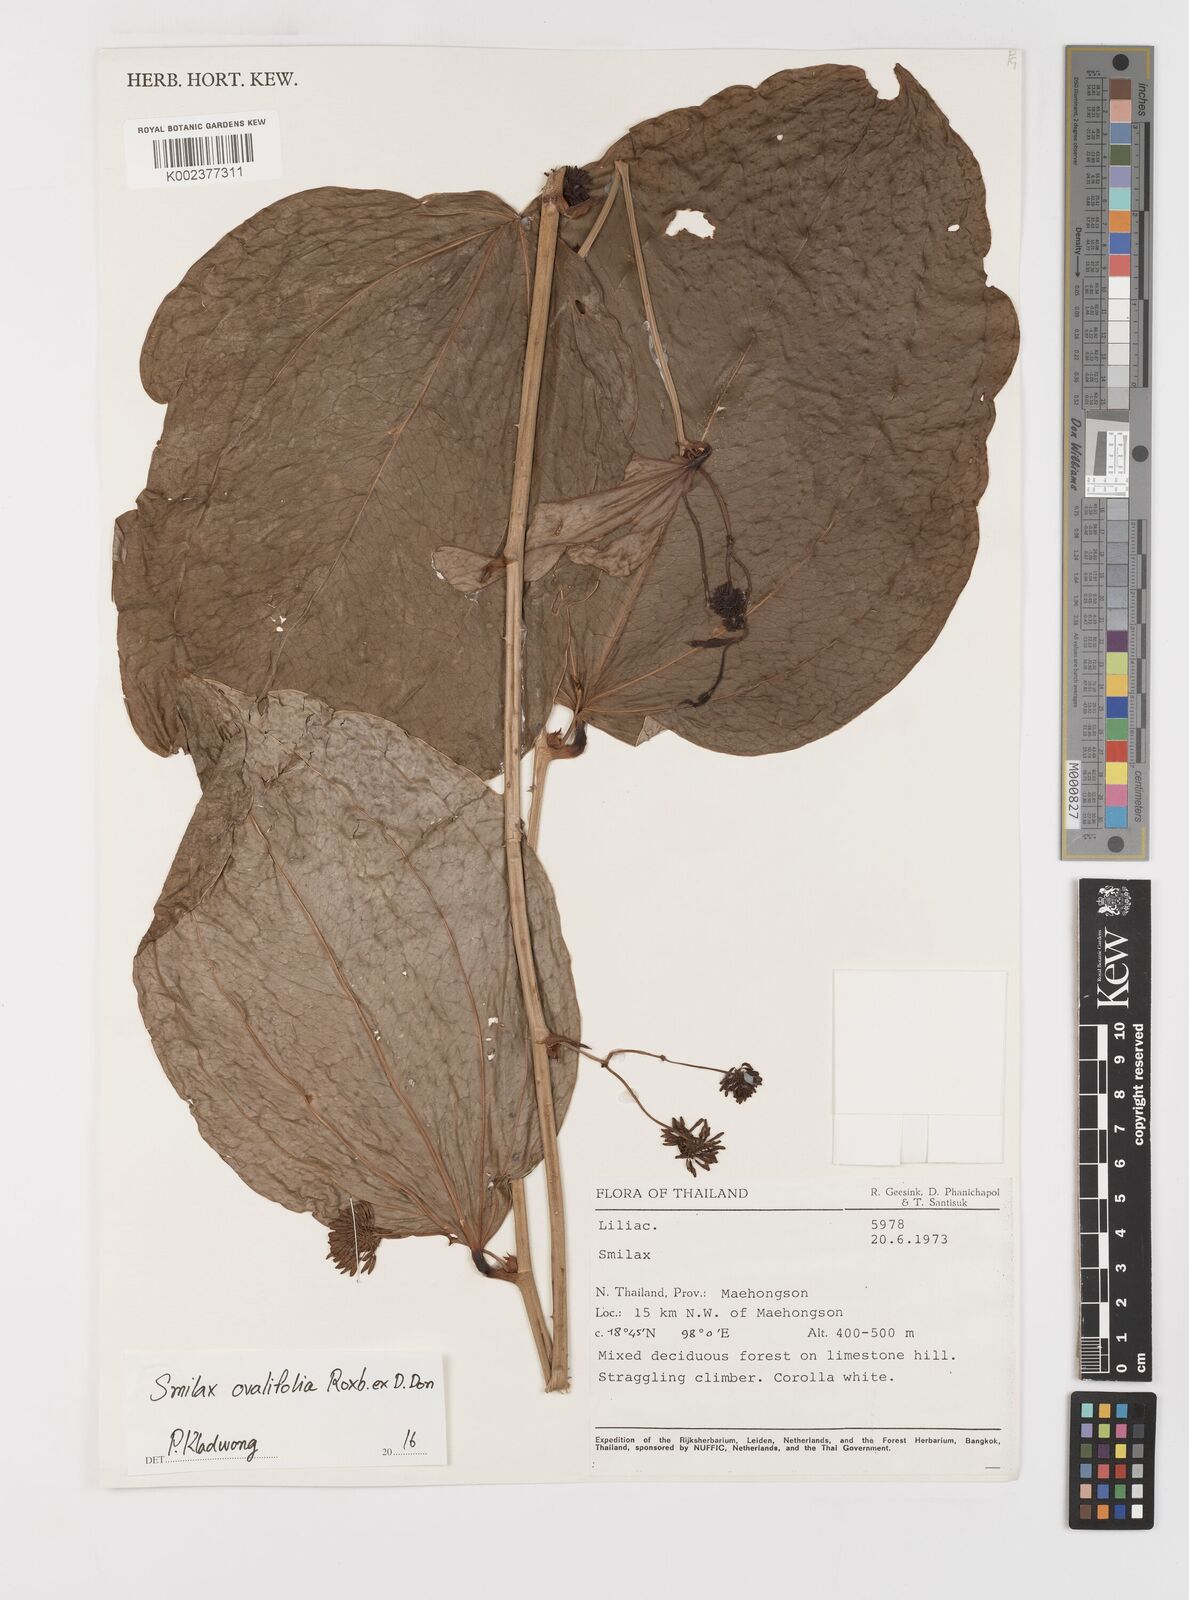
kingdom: Plantae
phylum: Tracheophyta
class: Liliopsida
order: Liliales
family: Smilacaceae
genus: Smilax
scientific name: Smilax ovalifolia
